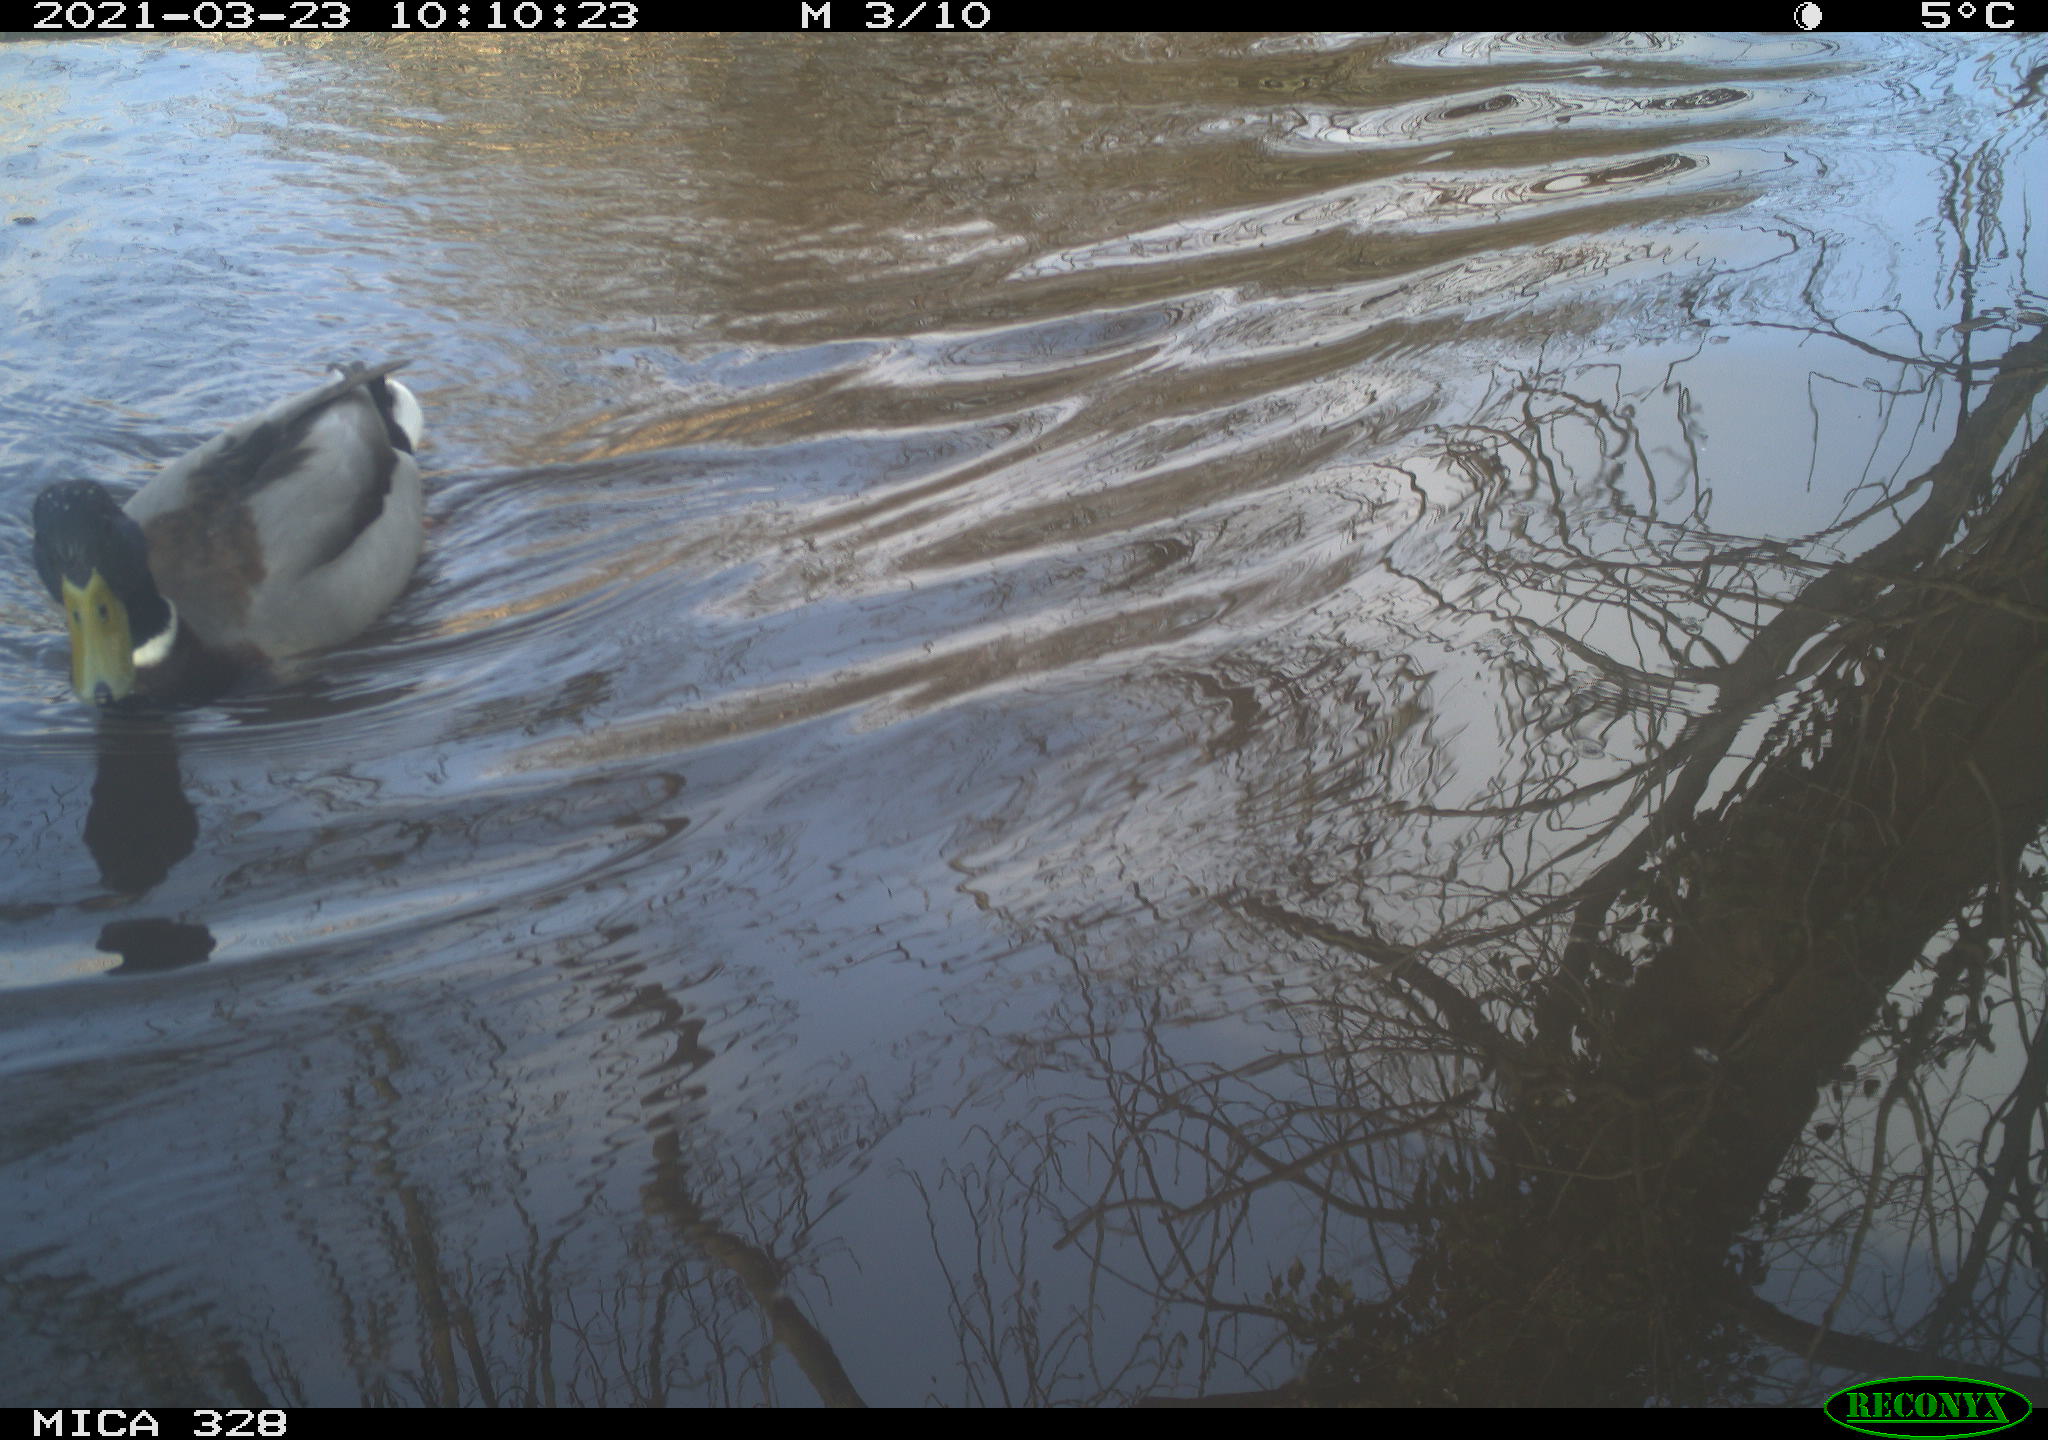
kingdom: Animalia
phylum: Chordata
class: Aves
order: Anseriformes
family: Anatidae
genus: Anas
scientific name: Anas platyrhynchos
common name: Mallard
